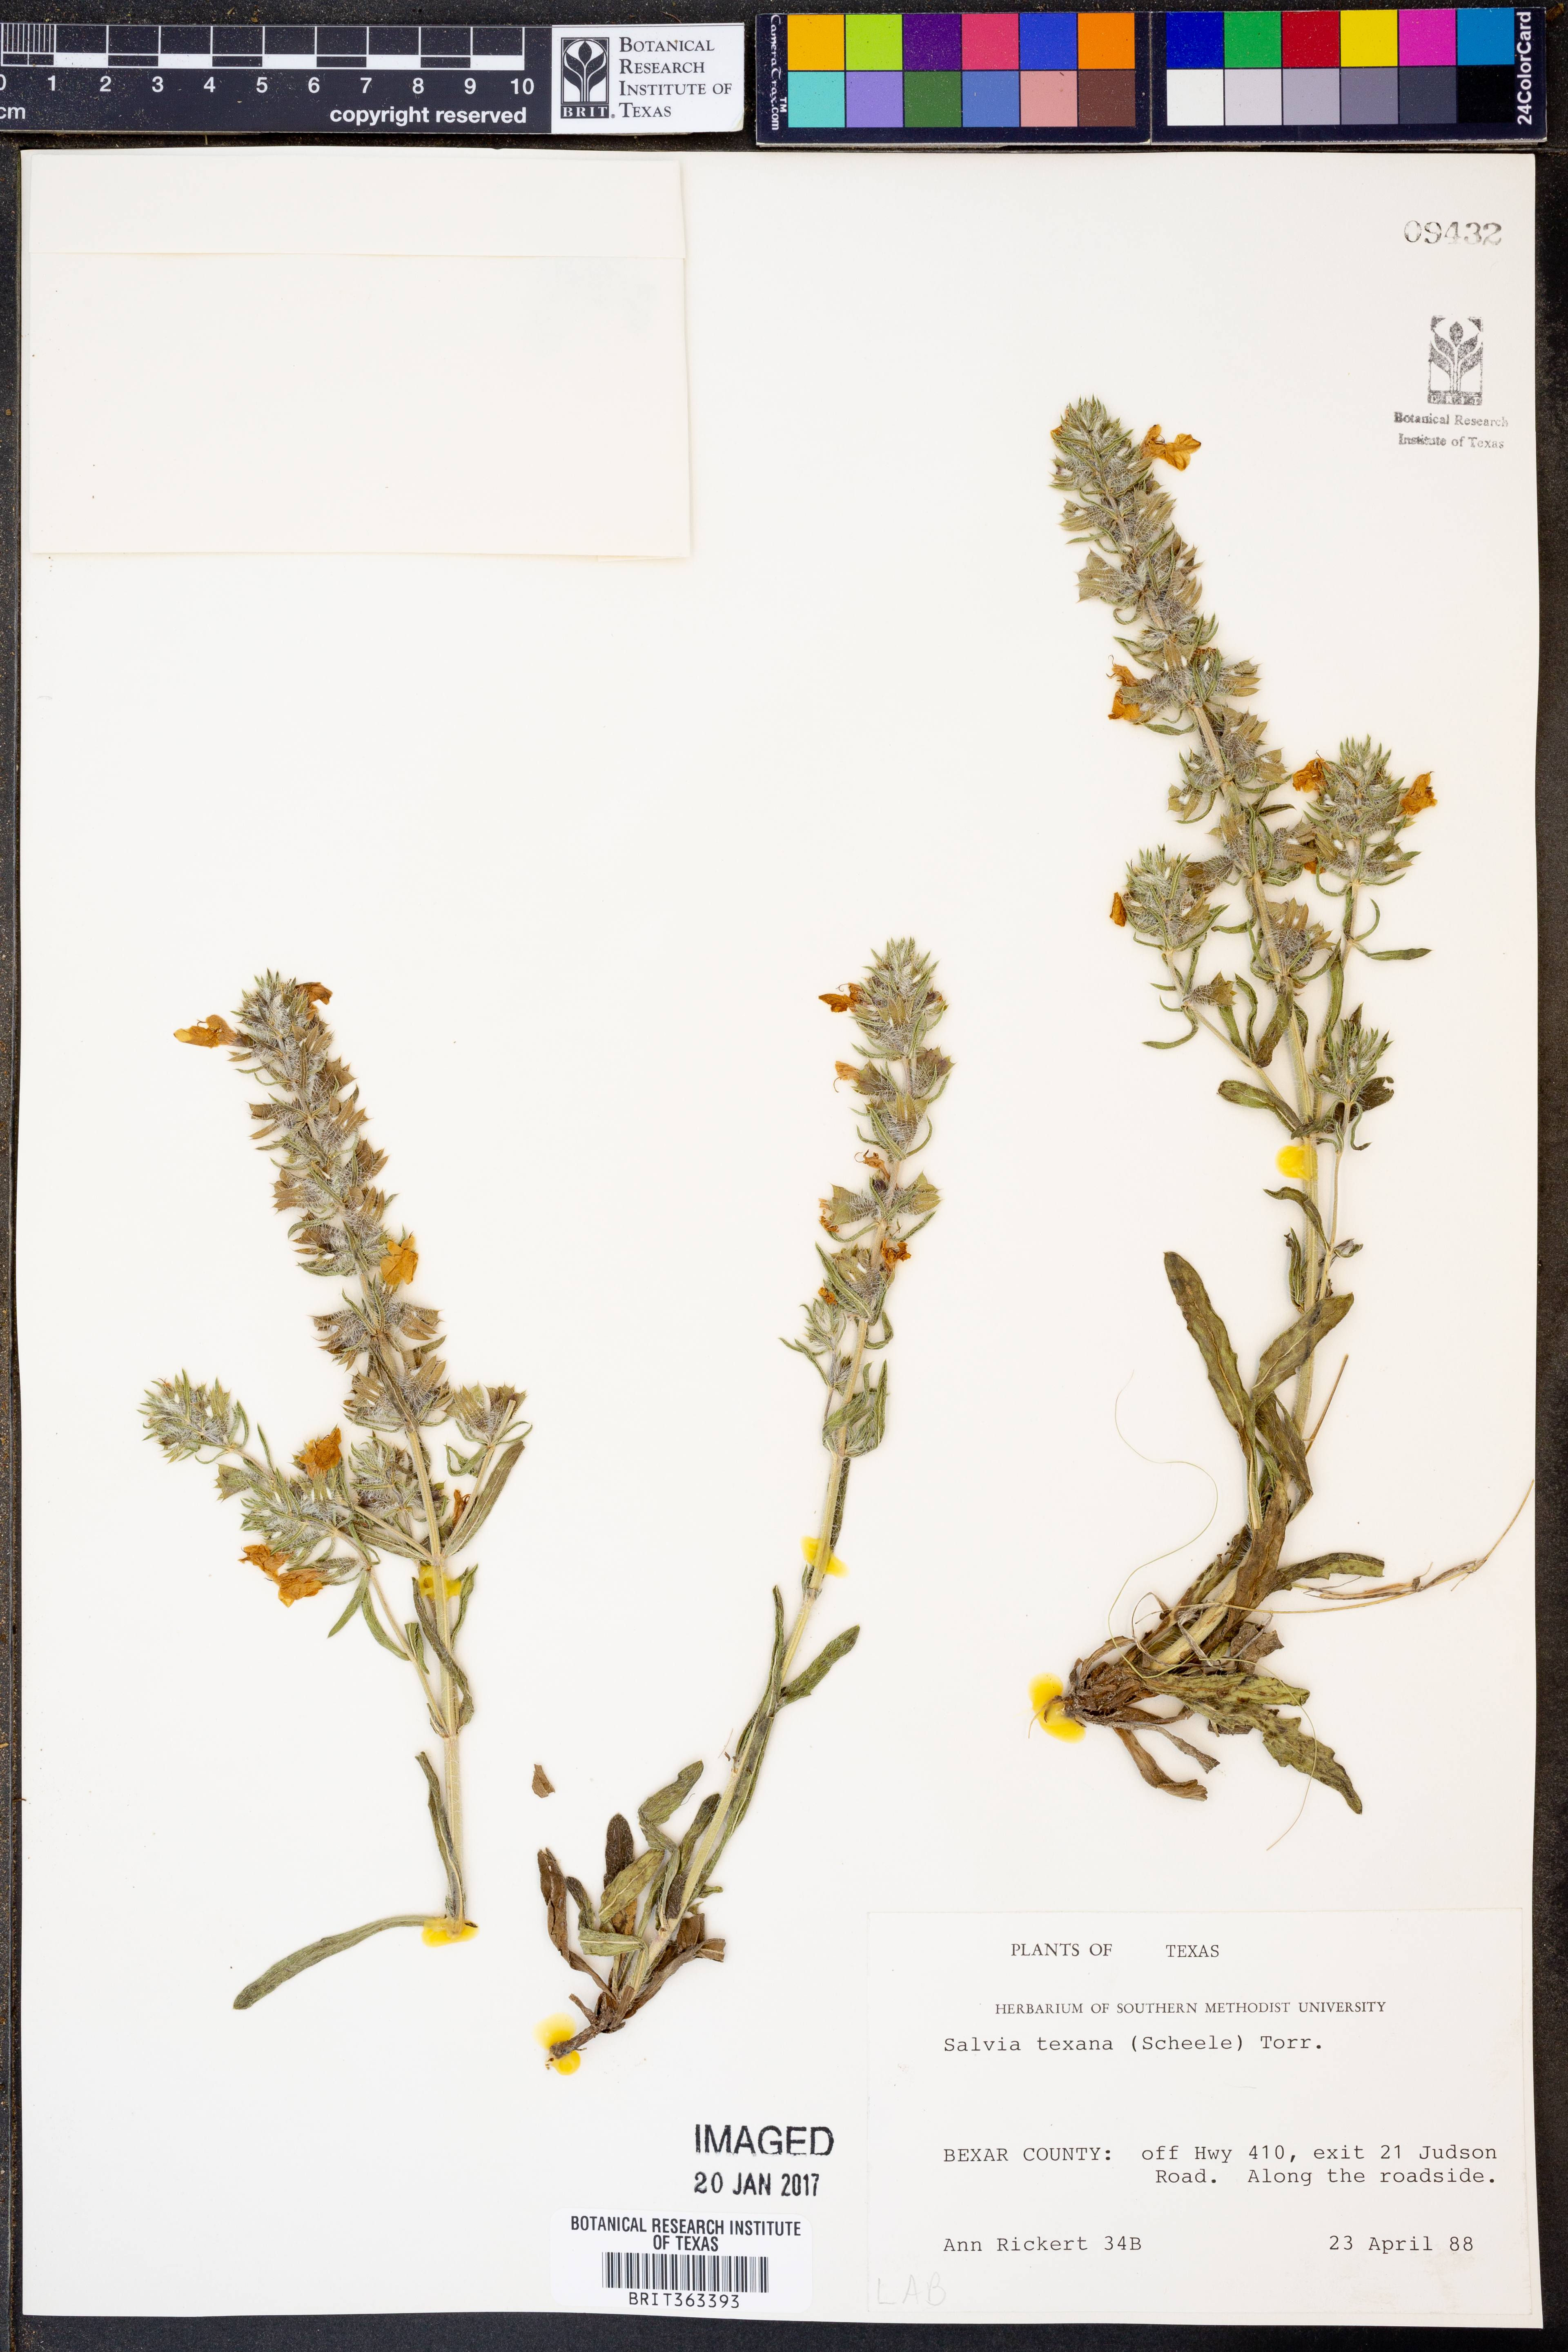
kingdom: Plantae
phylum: Tracheophyta
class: Magnoliopsida
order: Lamiales
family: Lamiaceae
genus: Salvia
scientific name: Salvia texana
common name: Texas sage
